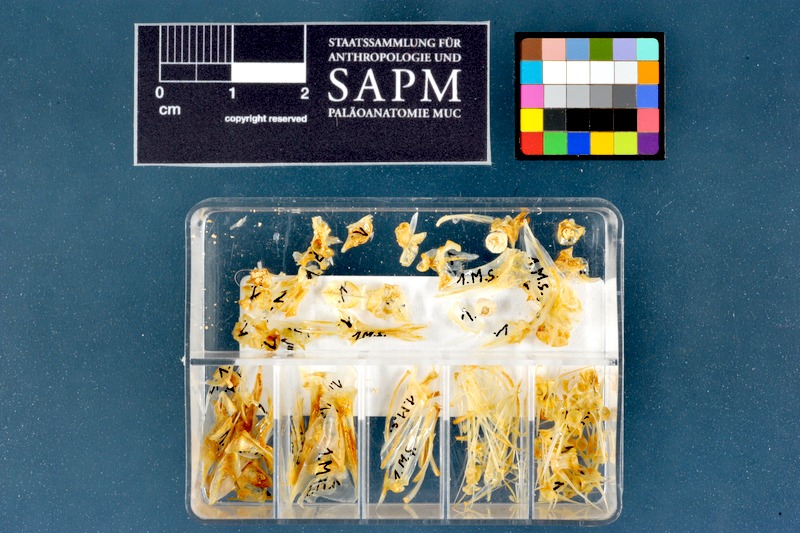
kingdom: Animalia
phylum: Chordata
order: Perciformes
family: Mullidae
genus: Mullus
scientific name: Mullus surmuletus
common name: Red mullet
